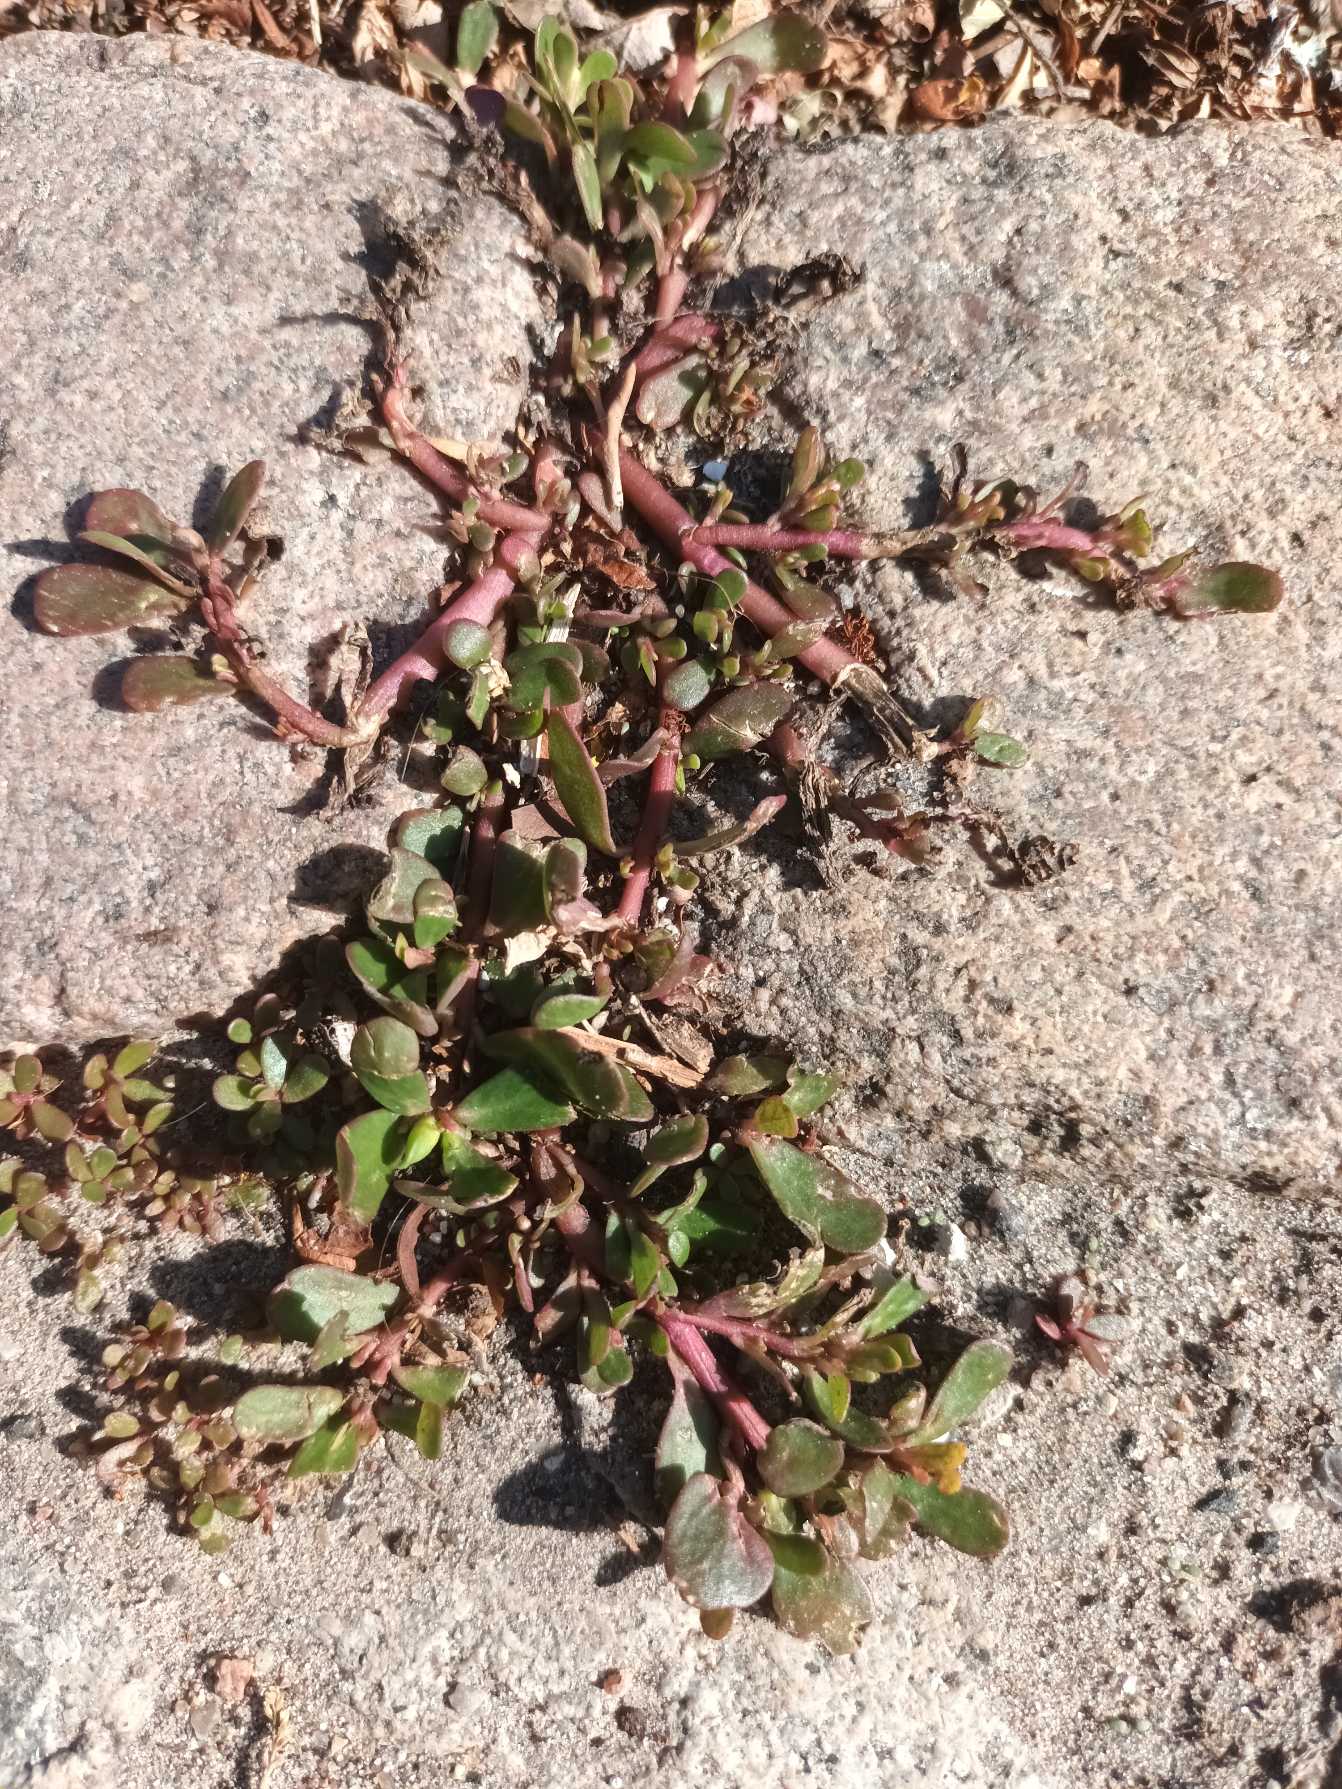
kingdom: Plantae
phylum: Tracheophyta
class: Magnoliopsida
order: Caryophyllales
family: Portulacaceae
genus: Portulaca
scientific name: Portulaca oleracea
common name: Portulak
